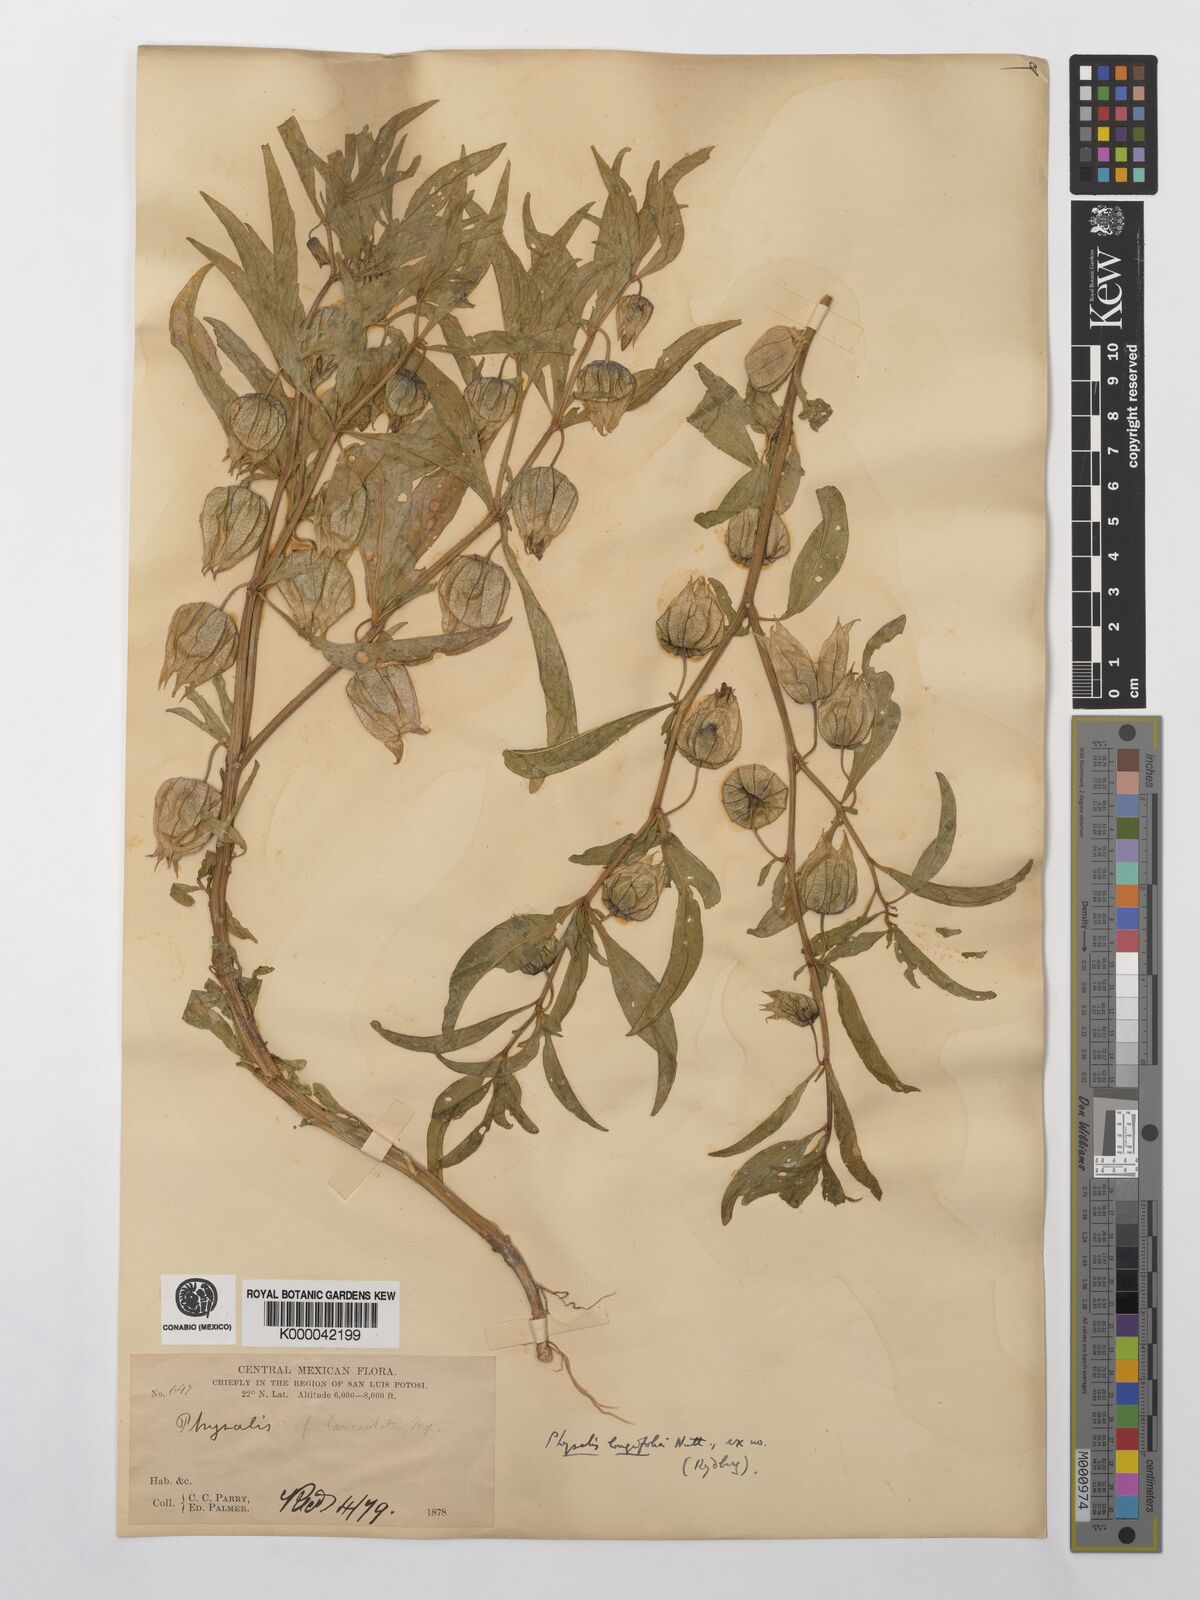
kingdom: Plantae
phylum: Tracheophyta
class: Magnoliopsida
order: Solanales
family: Solanaceae
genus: Physalis
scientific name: Physalis longifolia
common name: Common ground-cherry
